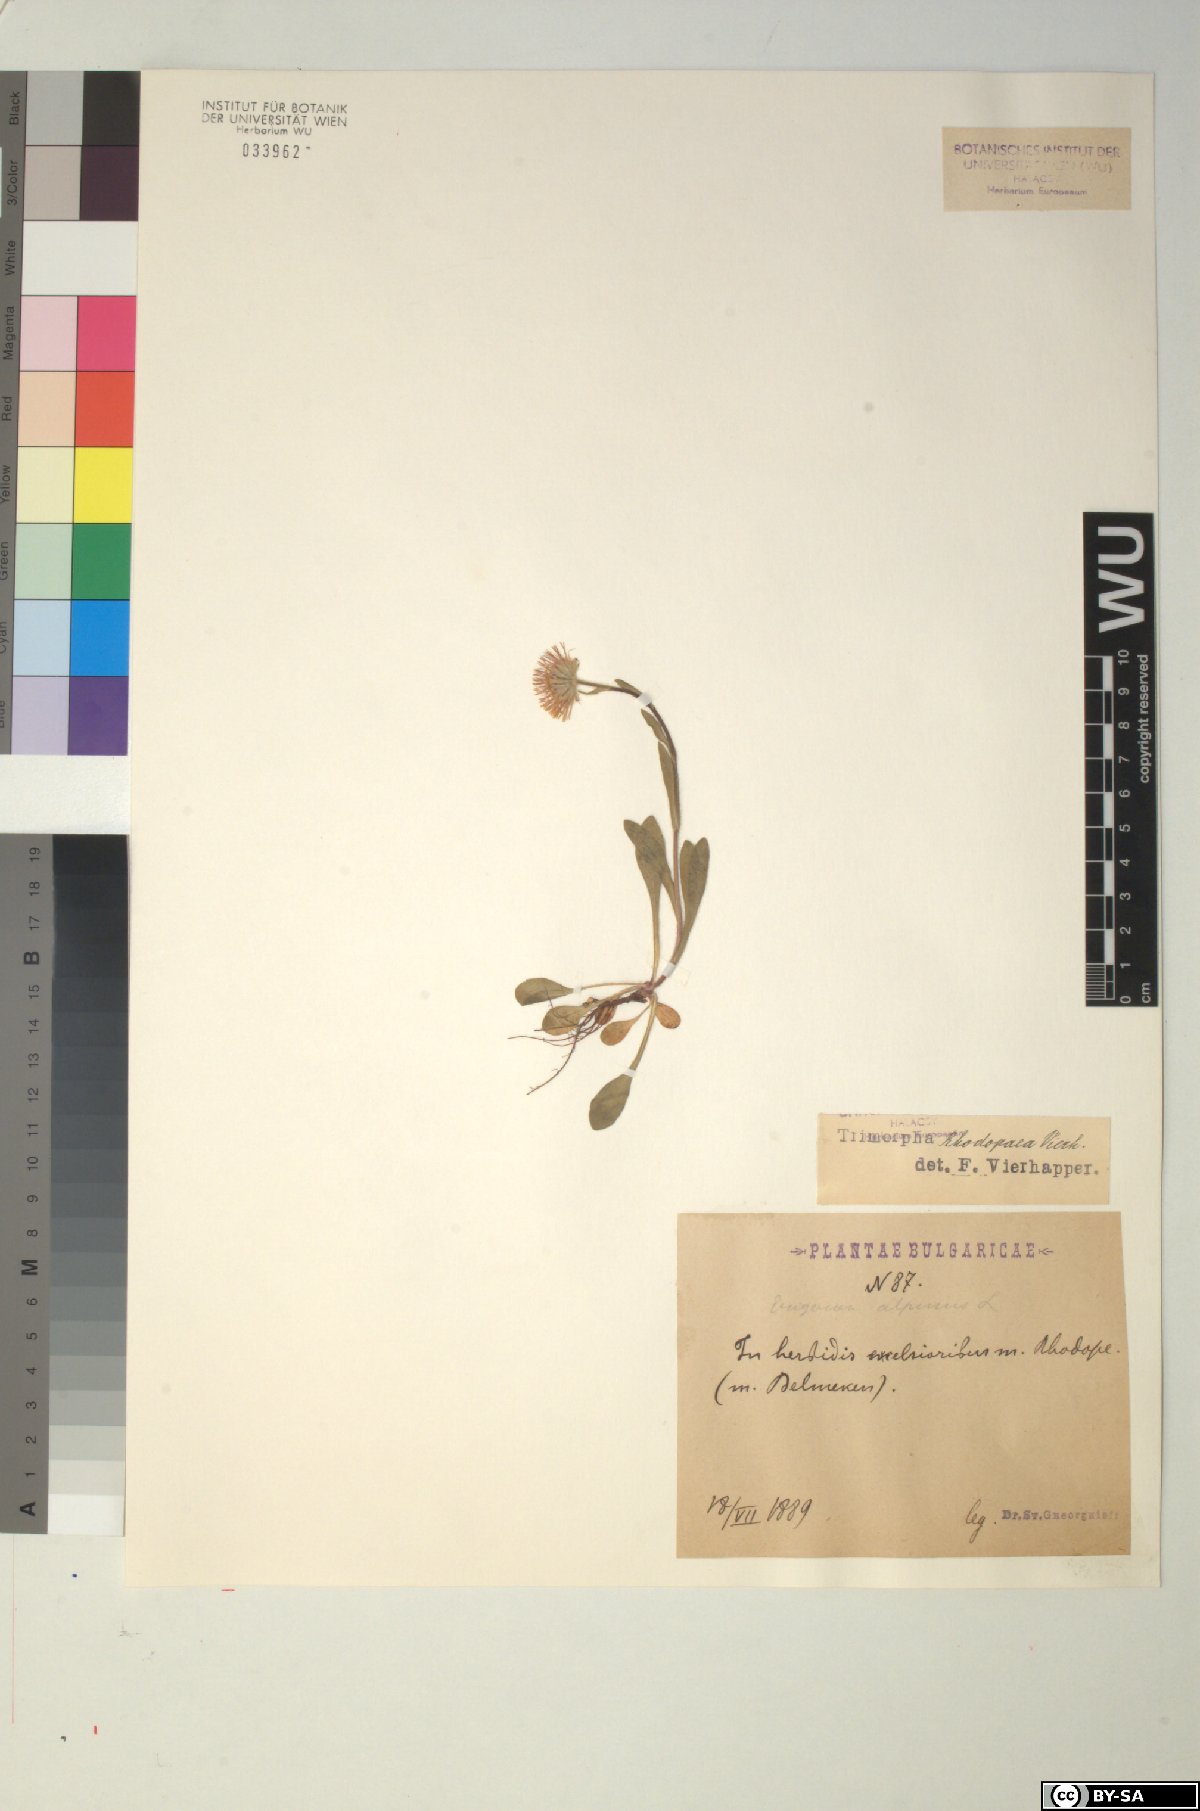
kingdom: Plantae
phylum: Tracheophyta
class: Magnoliopsida
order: Asterales
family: Asteraceae
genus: Erigeron
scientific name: Erigeron alpinus
